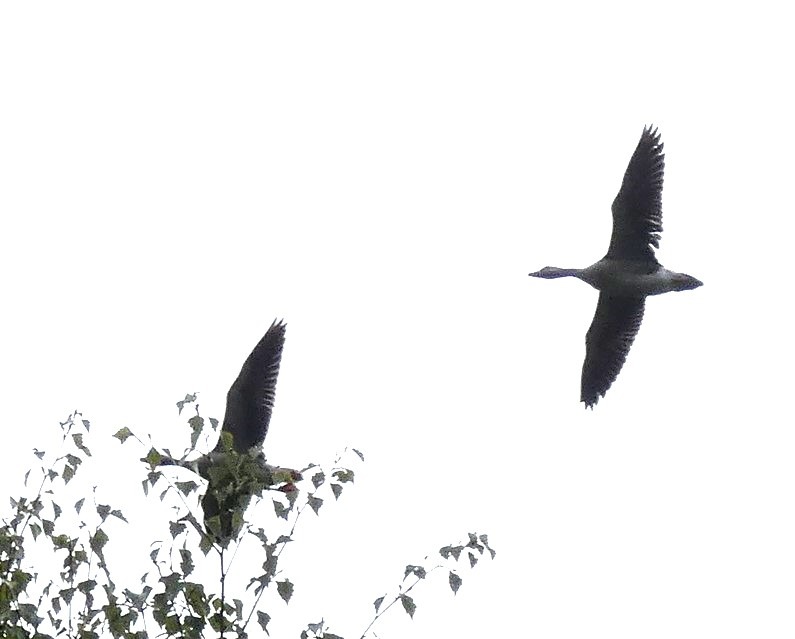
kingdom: Animalia
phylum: Chordata
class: Aves
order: Anseriformes
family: Anatidae
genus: Anser
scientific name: Anser anser
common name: Grågås
